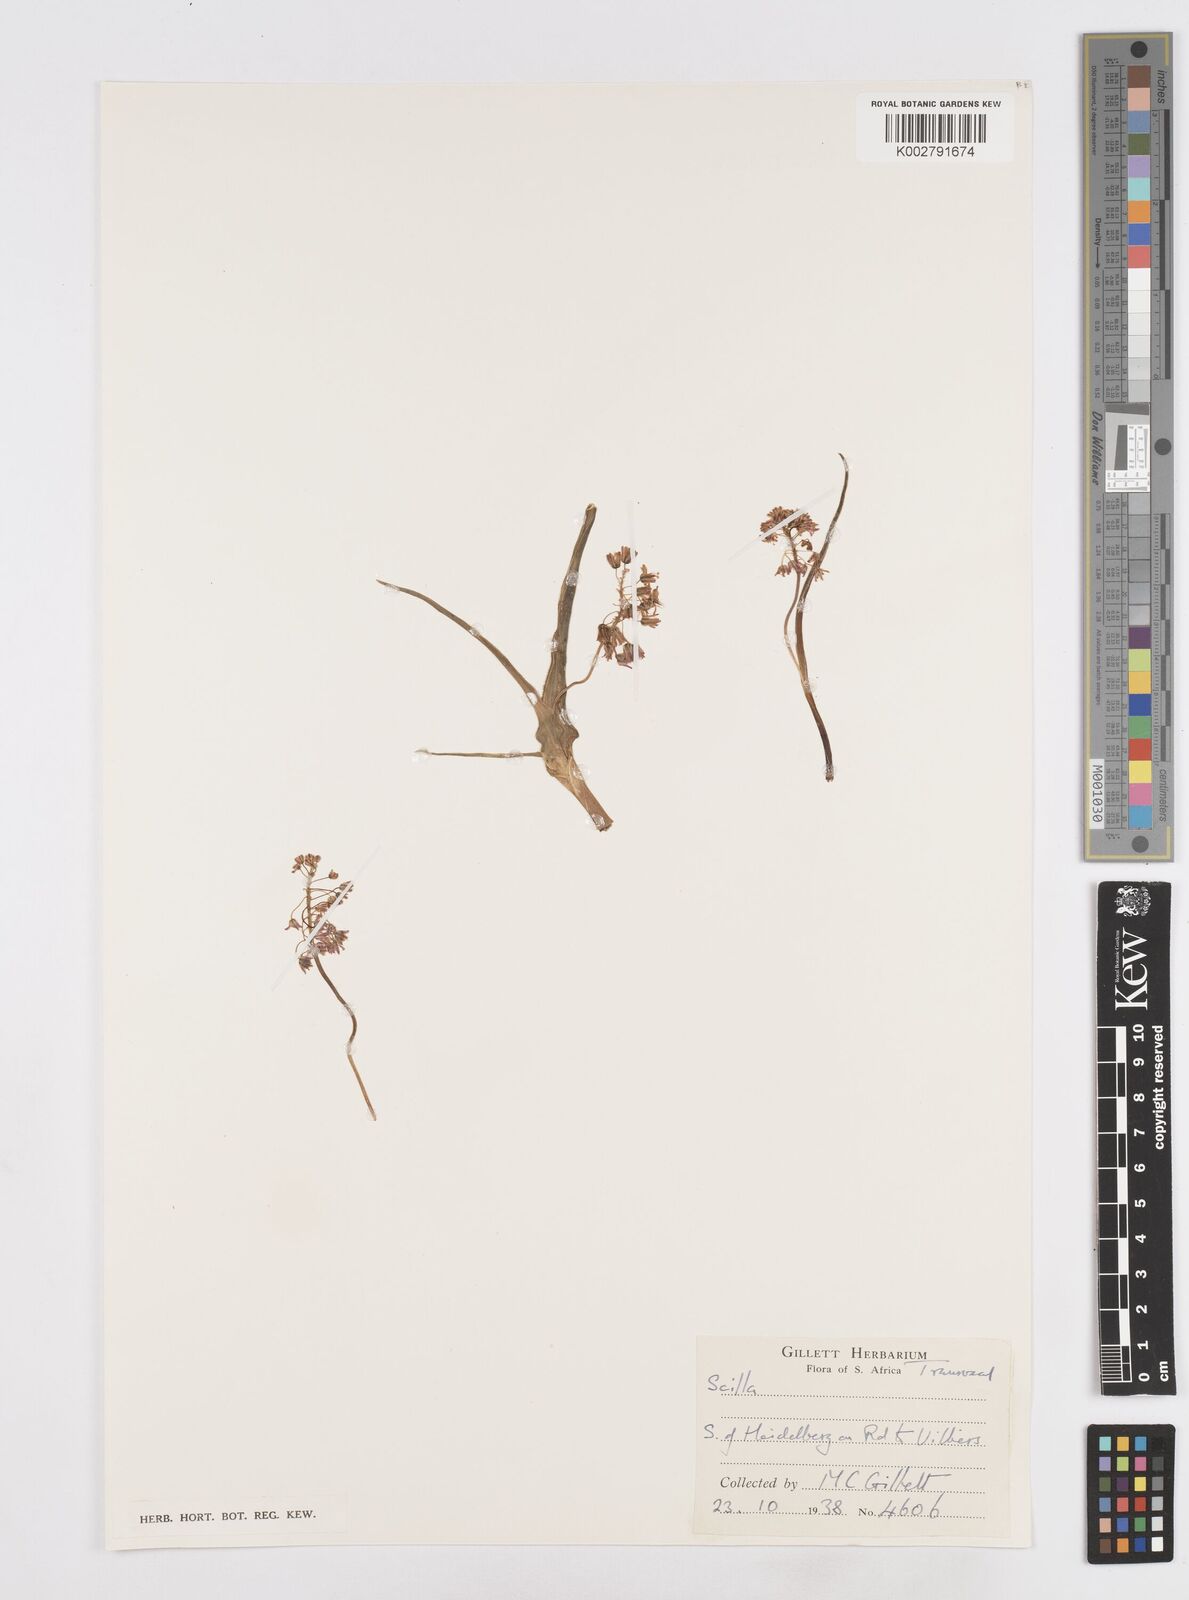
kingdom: Plantae
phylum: Tracheophyta
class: Liliopsida
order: Asparagales
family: Asparagaceae
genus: Scilla
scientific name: Scilla
